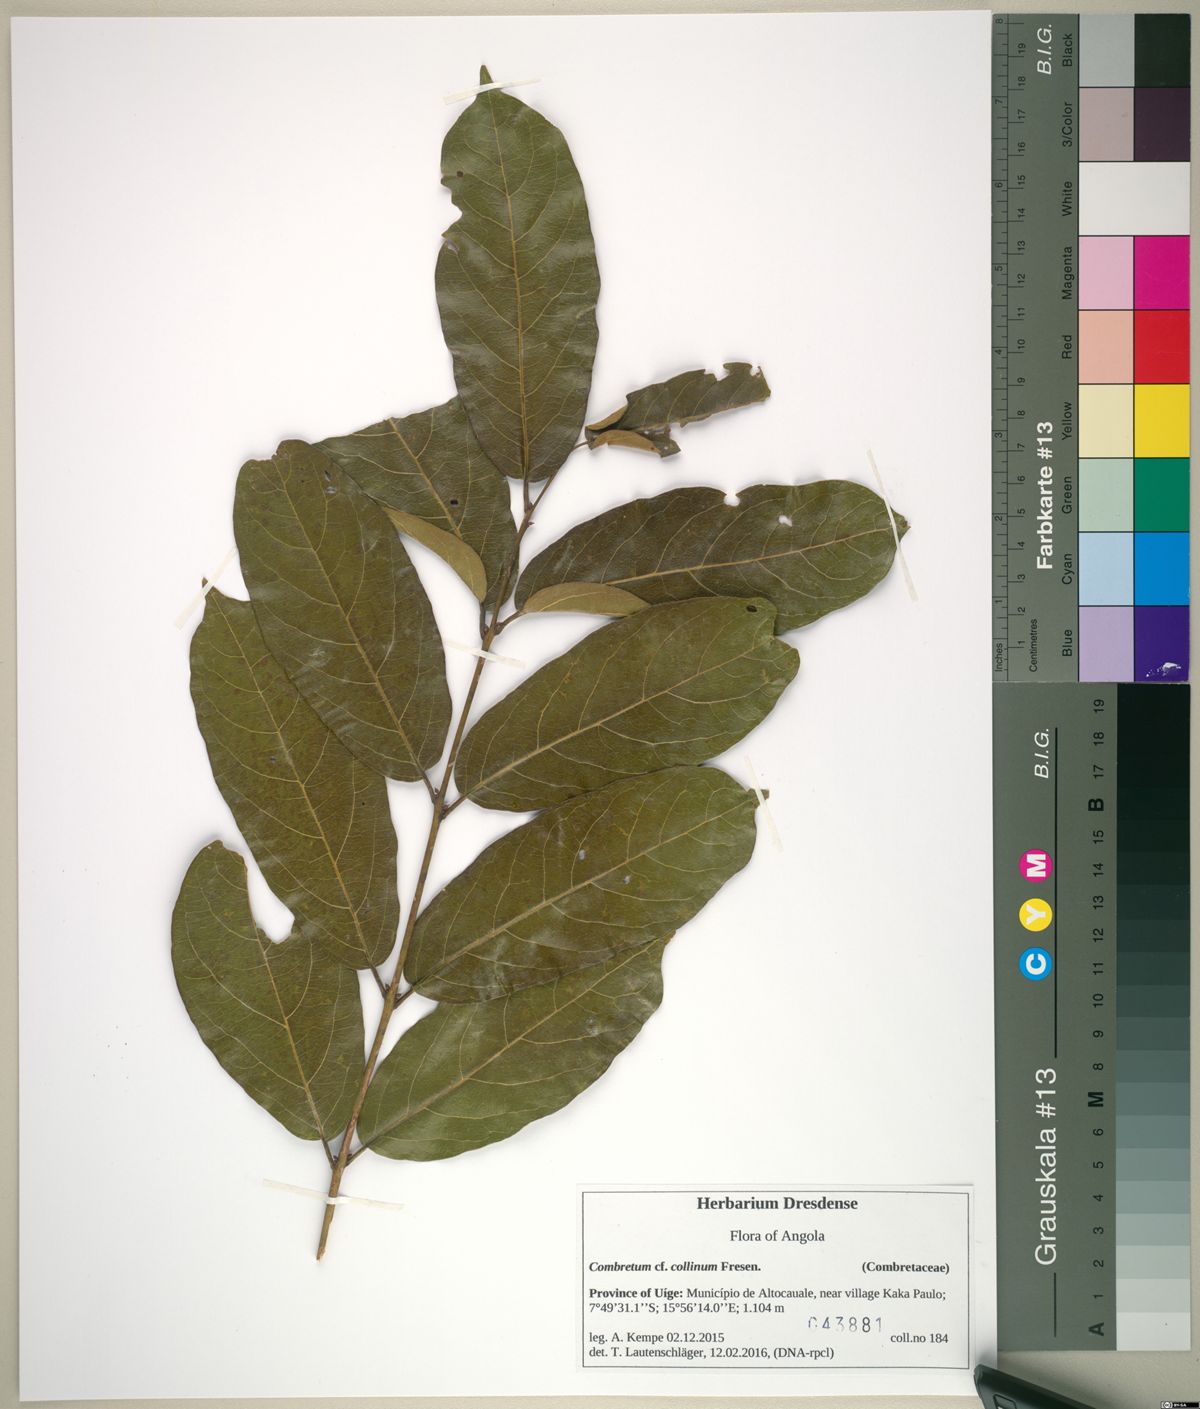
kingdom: Plantae
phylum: Tracheophyta
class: Magnoliopsida
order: Myrtales
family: Combretaceae
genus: Combretum
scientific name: Combretum collinum
